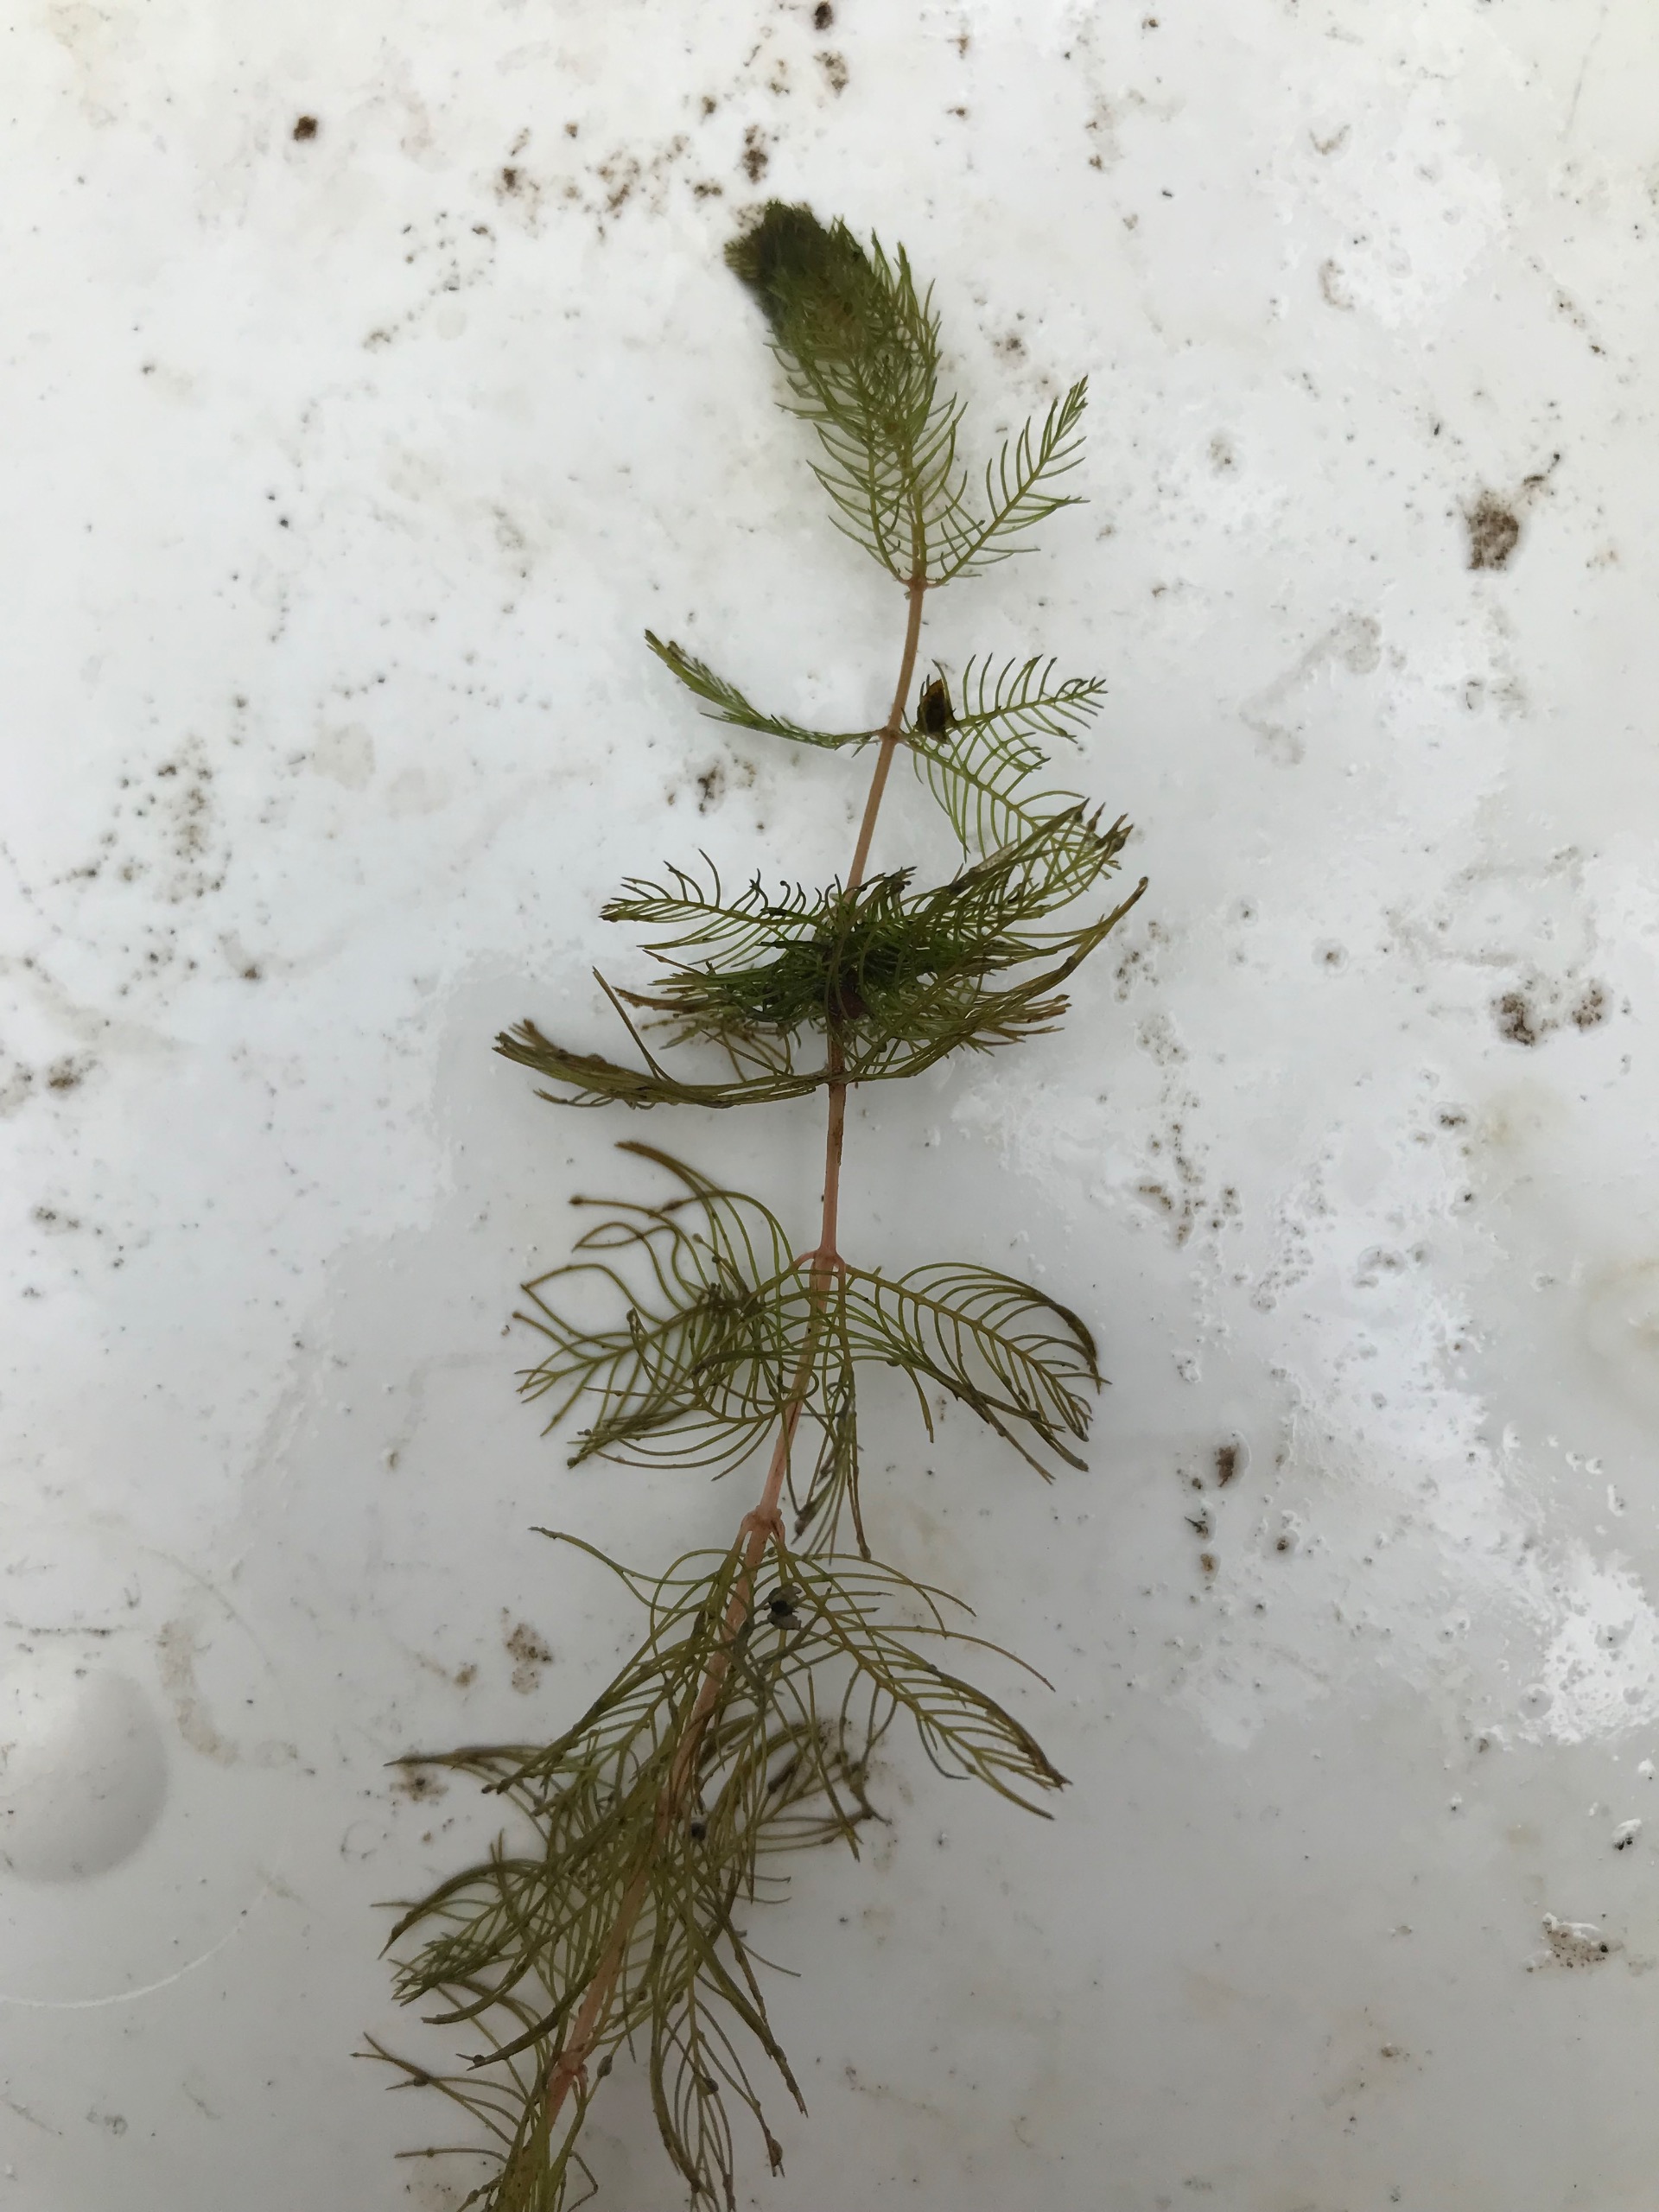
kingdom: Plantae
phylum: Tracheophyta
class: Magnoliopsida
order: Saxifragales
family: Haloragaceae
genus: Myriophyllum
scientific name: Myriophyllum spicatum
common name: Aks-tusindblad
